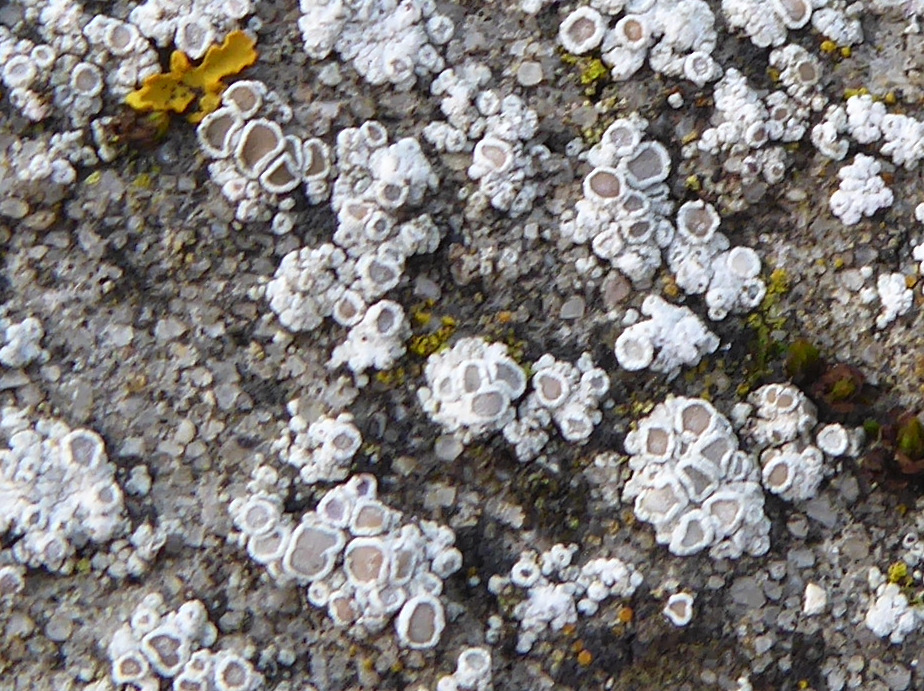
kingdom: Fungi
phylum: Ascomycota
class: Lecanoromycetes
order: Lecanorales
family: Lecanoraceae
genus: Polyozosia
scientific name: Polyozosia albescens
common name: cement-kantskivelav
